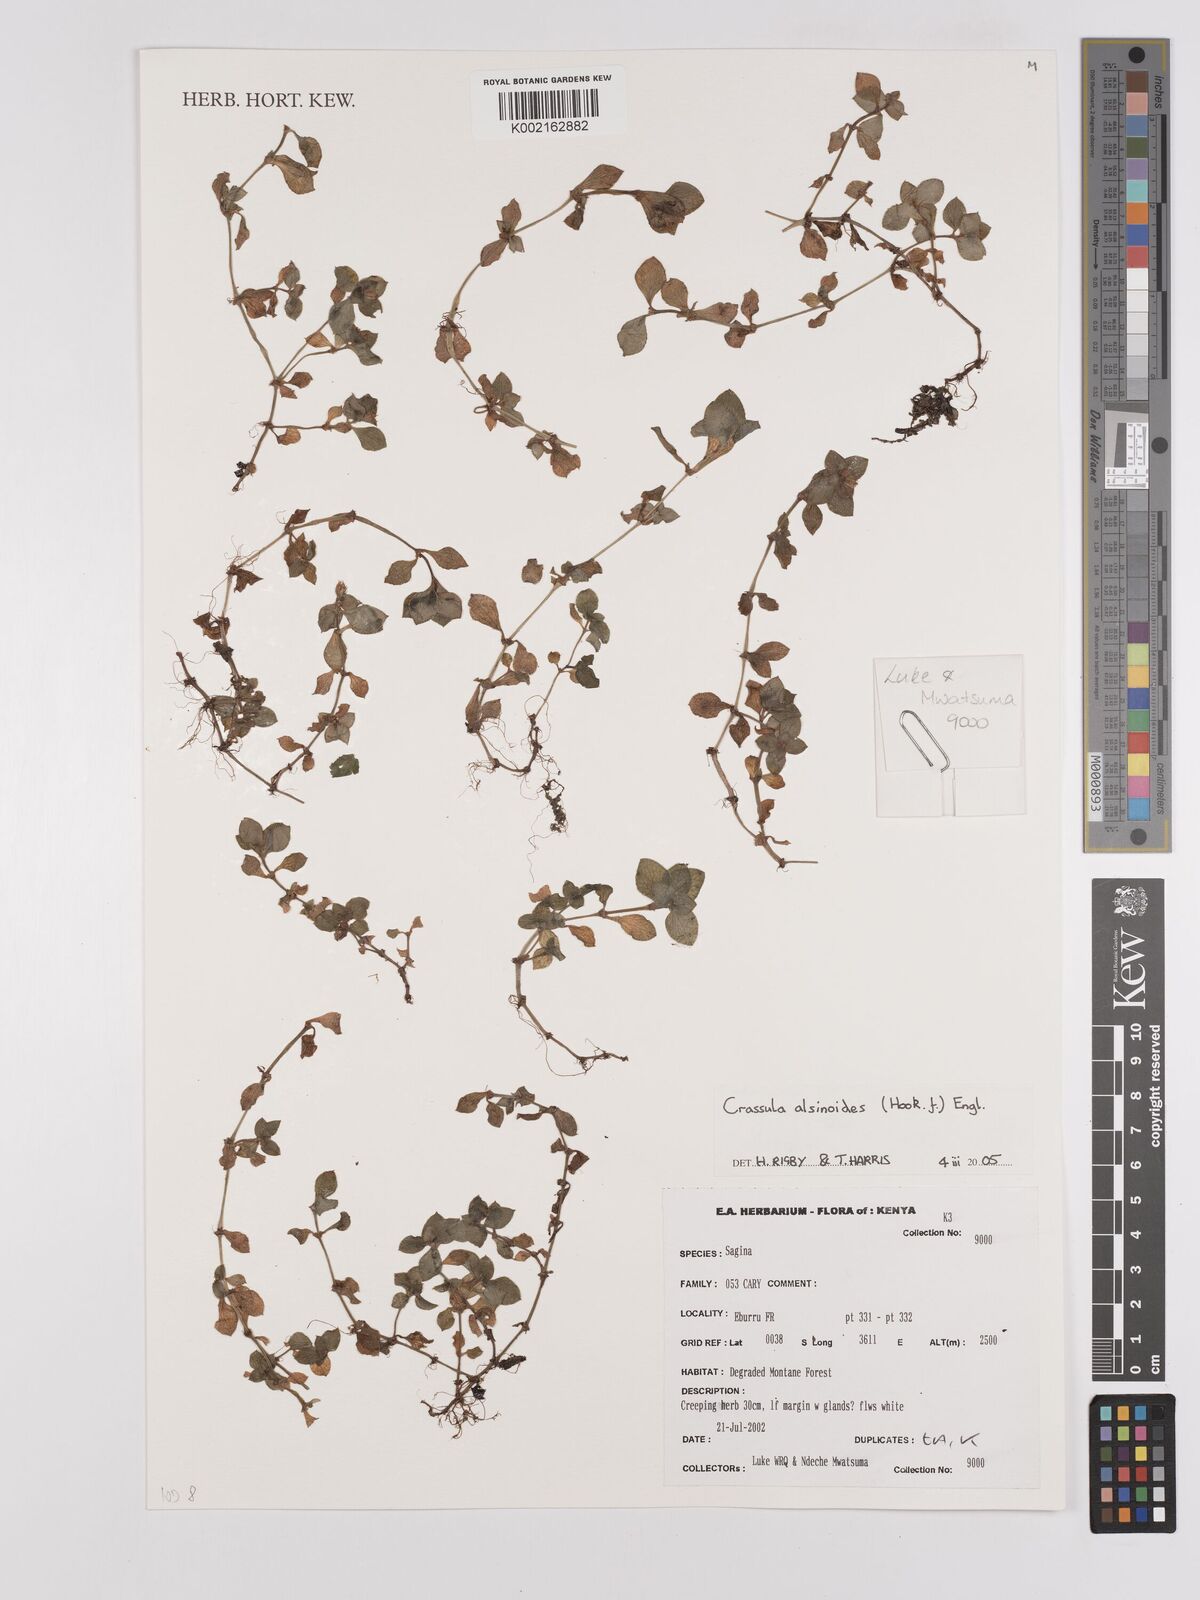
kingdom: Plantae
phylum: Tracheophyta
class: Magnoliopsida
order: Saxifragales
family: Crassulaceae
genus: Crassula
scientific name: Crassula alsinoides
